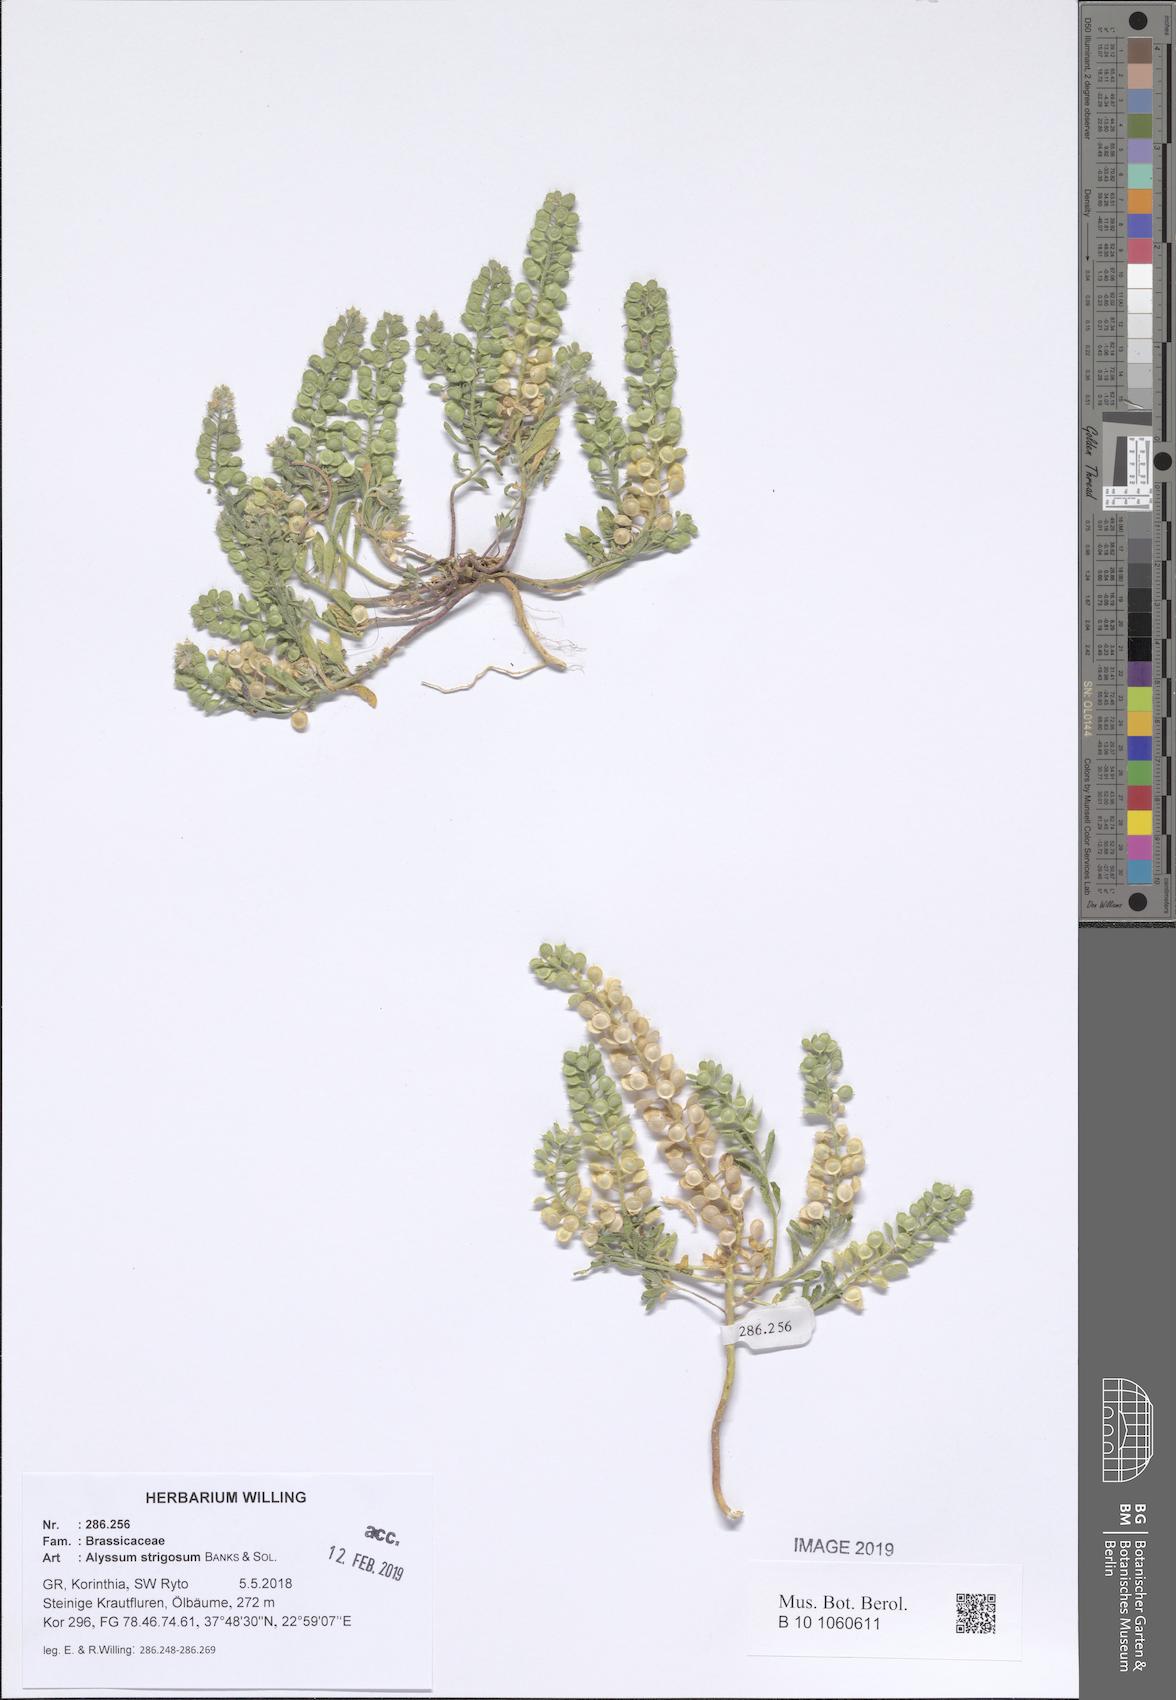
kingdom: Plantae
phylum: Tracheophyta
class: Magnoliopsida
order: Brassicales
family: Brassicaceae
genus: Alyssum
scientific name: Alyssum strigosum
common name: Alyssum
